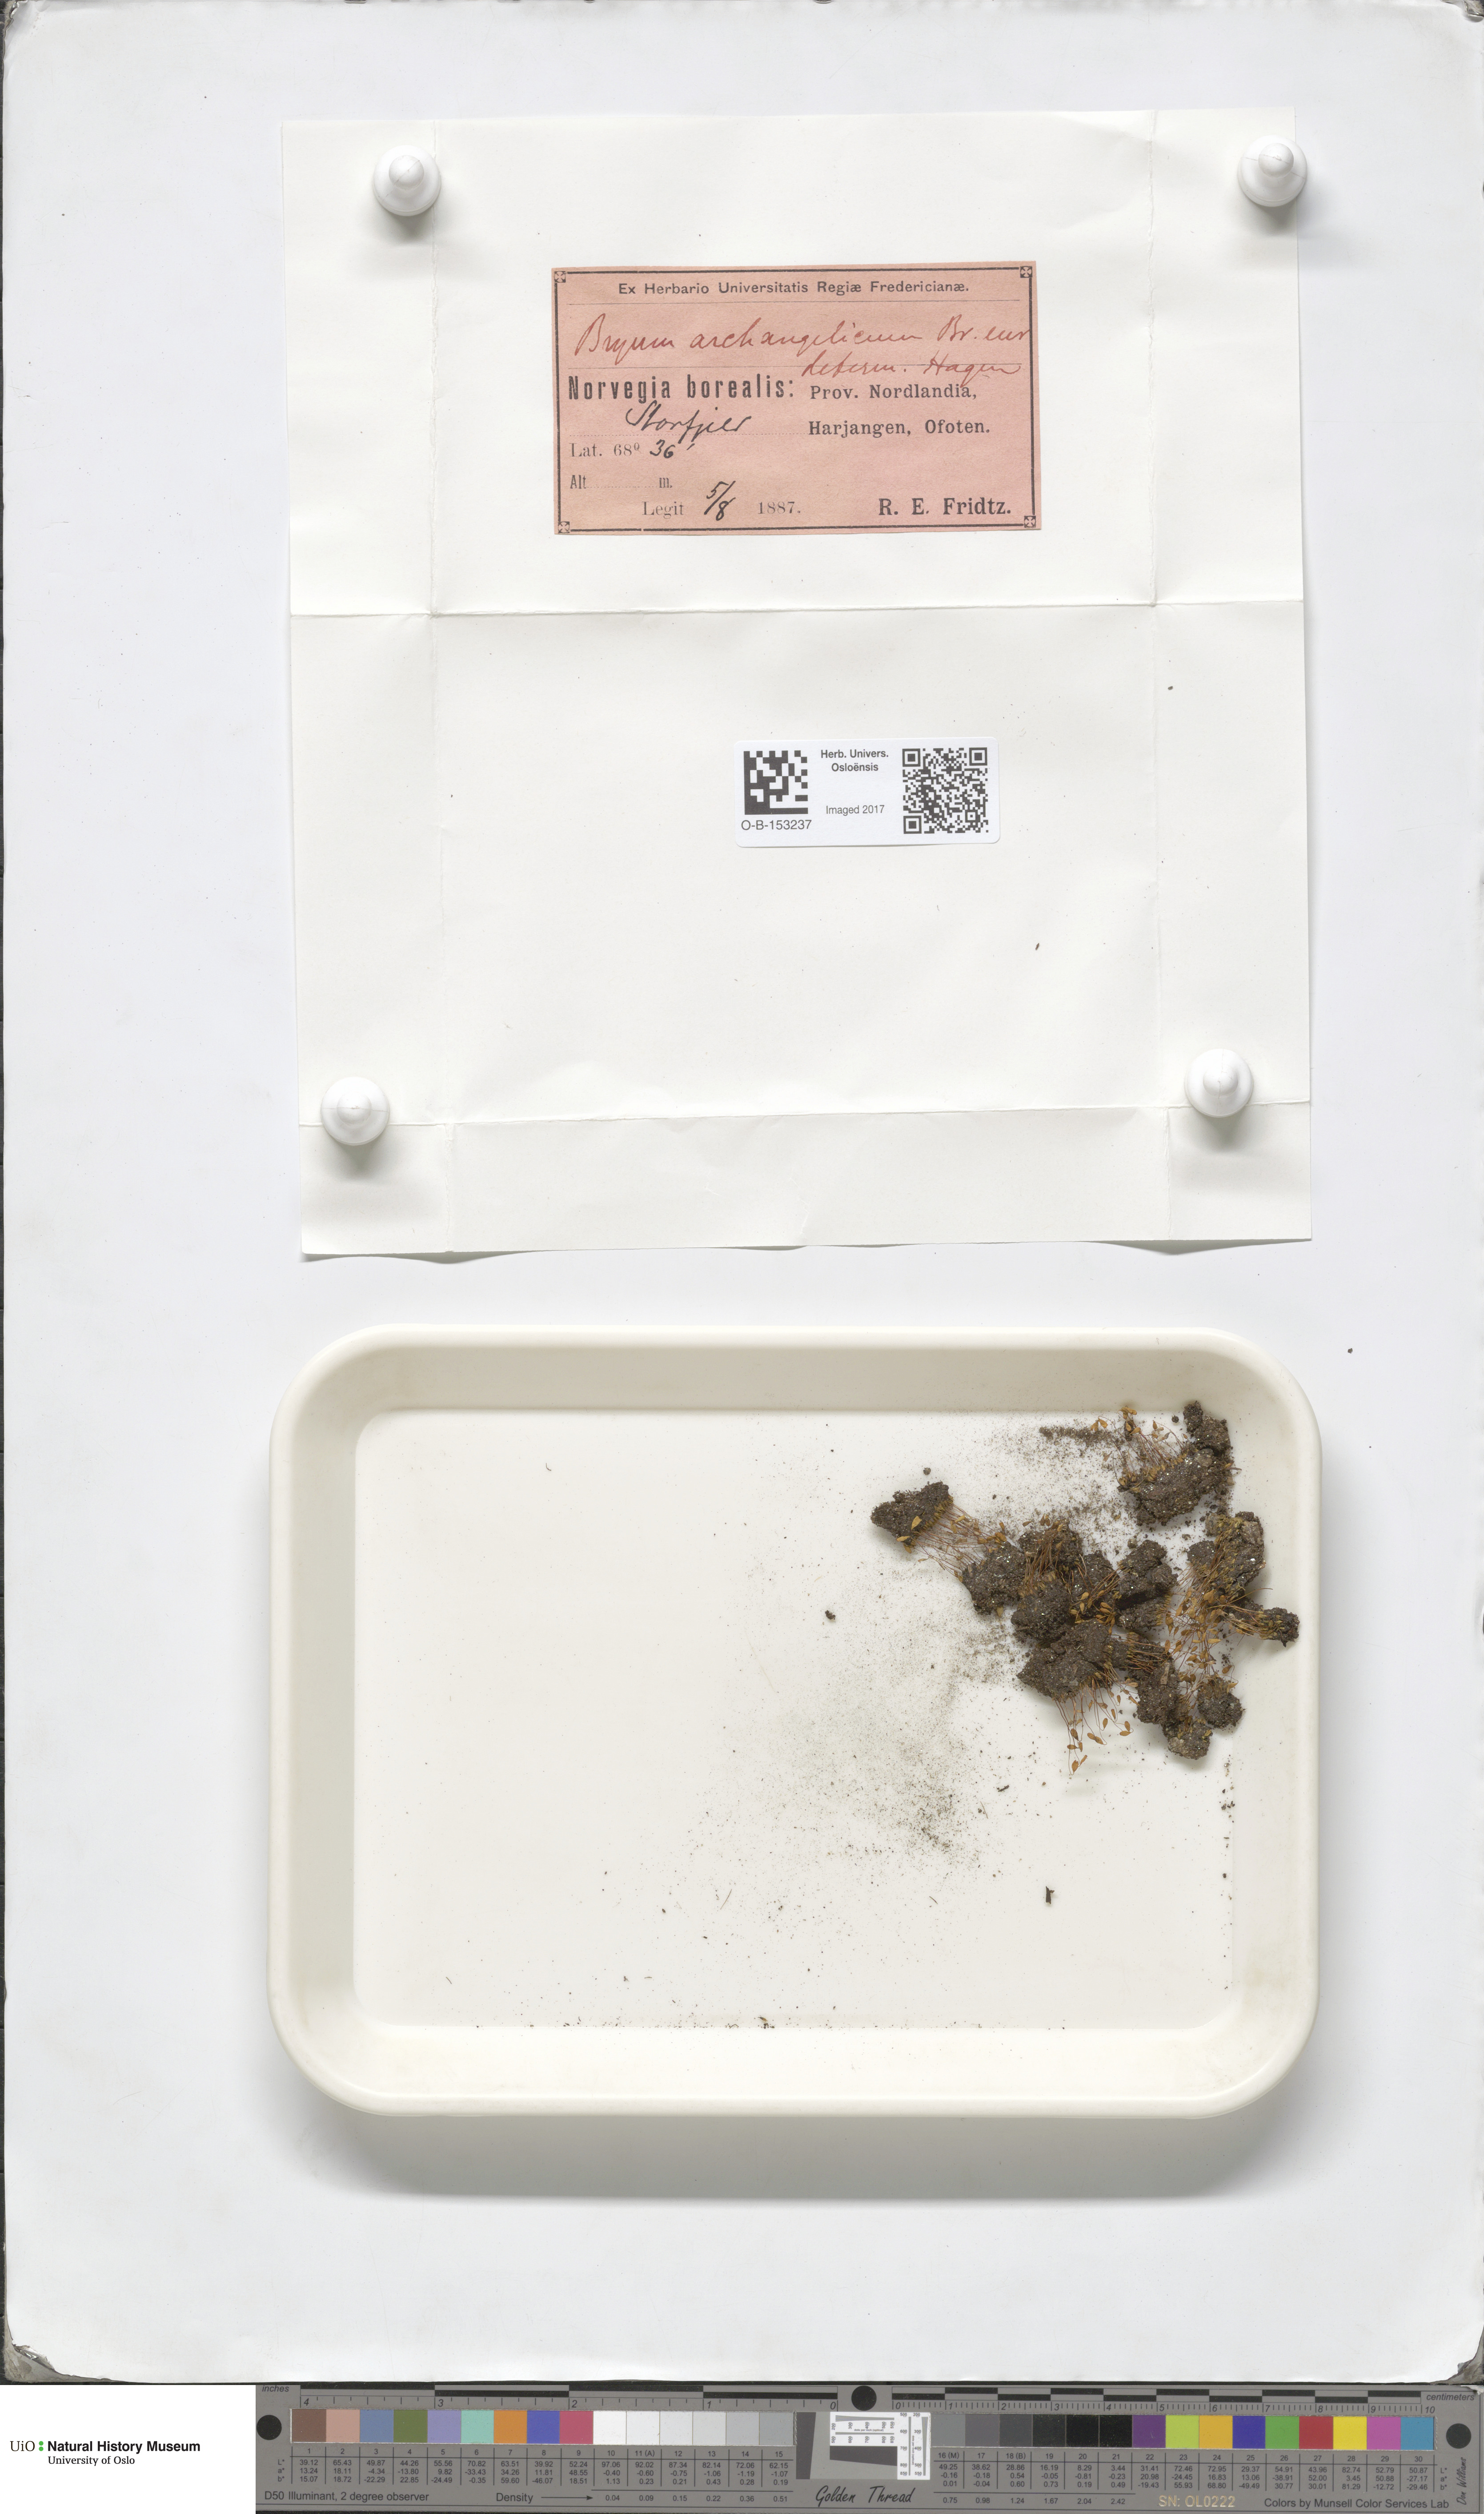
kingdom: Plantae
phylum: Bryophyta
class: Bryopsida
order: Bryales
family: Bryaceae
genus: Ptychostomum
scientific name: Ptychostomum inclinatum
